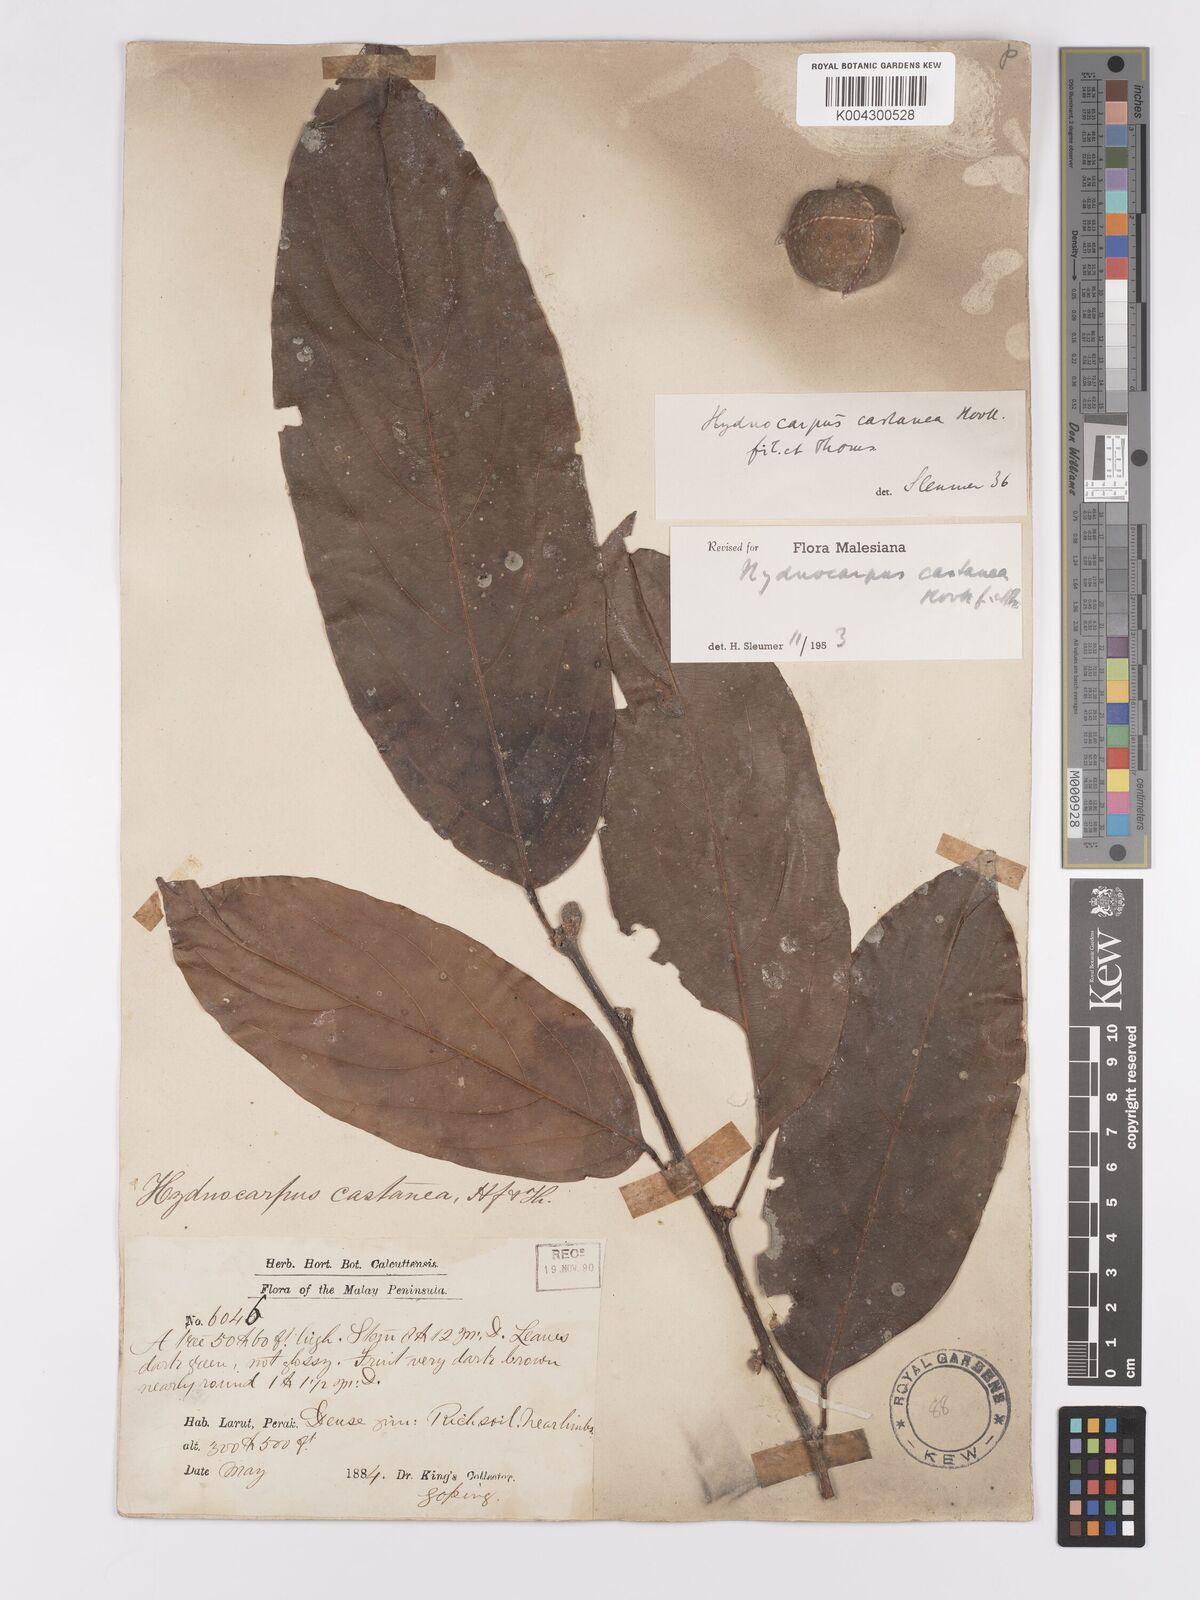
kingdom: Plantae
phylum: Tracheophyta
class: Magnoliopsida
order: Malpighiales
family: Achariaceae
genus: Hydnocarpus
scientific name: Hydnocarpus castaneus
